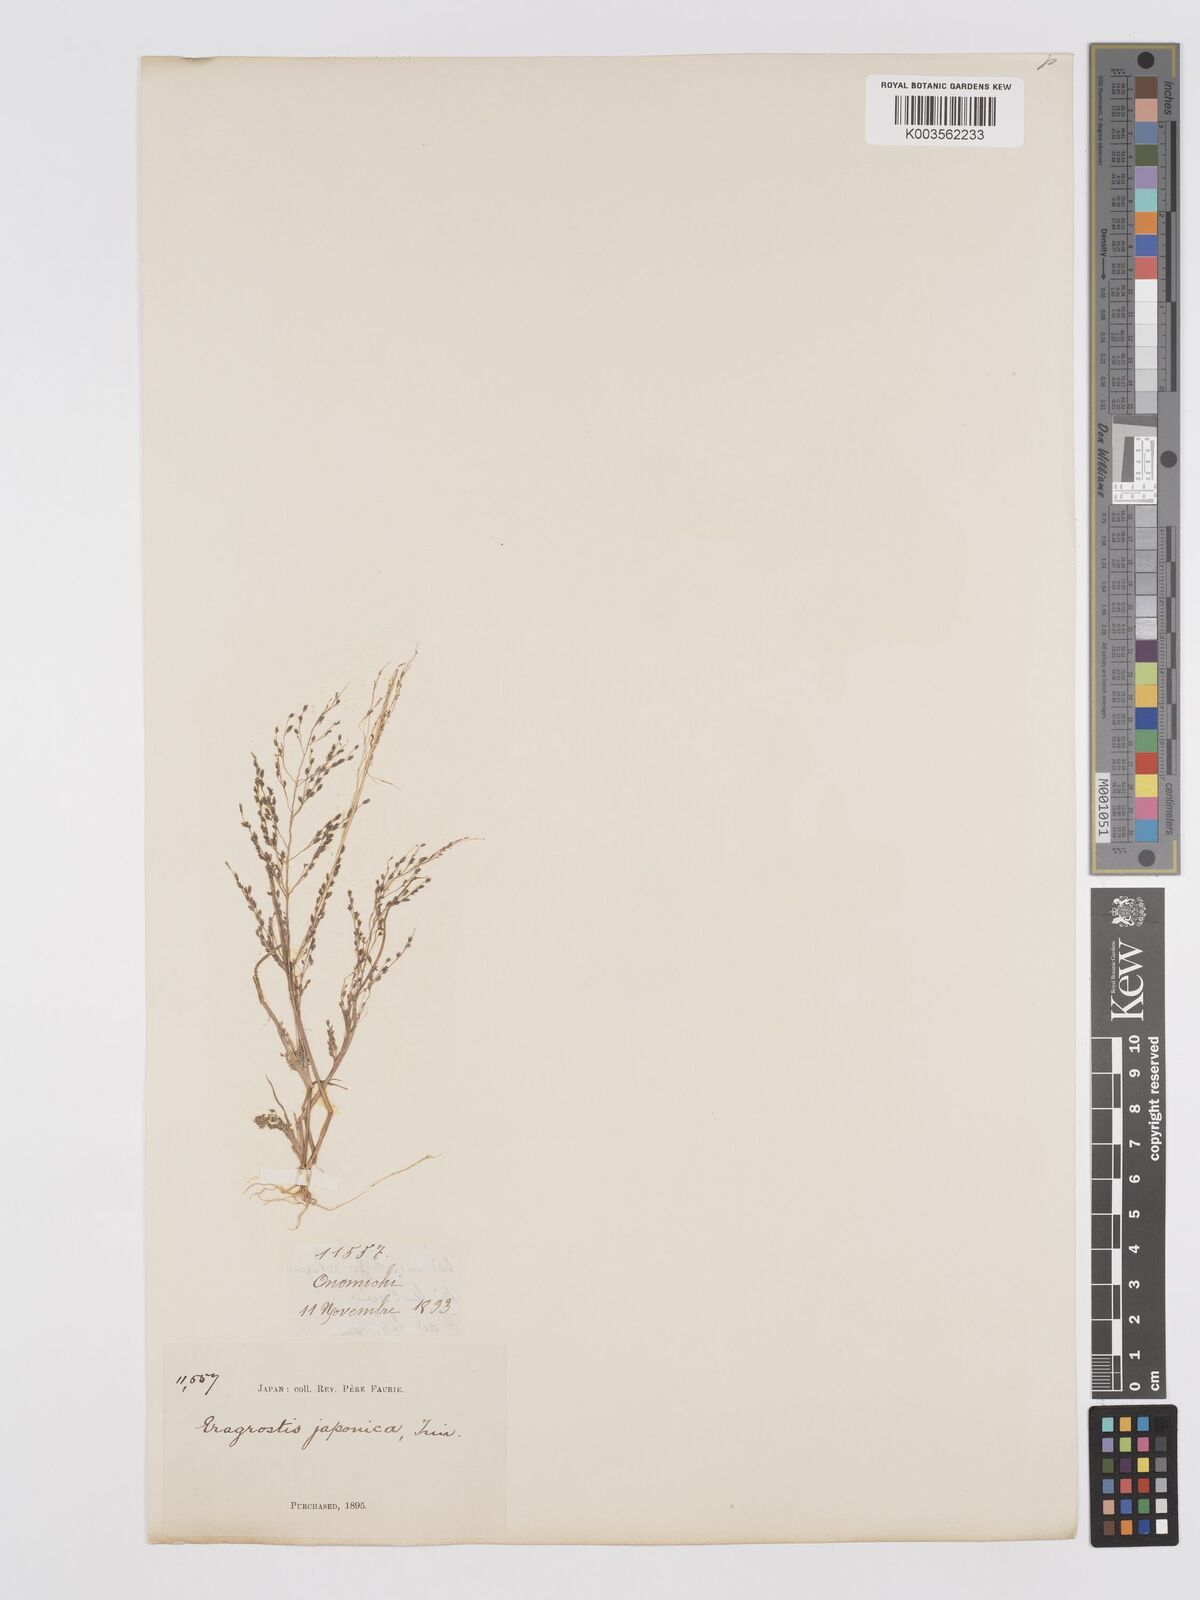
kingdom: Plantae
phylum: Tracheophyta
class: Liliopsida
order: Poales
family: Poaceae
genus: Eragrostis
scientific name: Eragrostis pilosa
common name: Indian lovegrass
